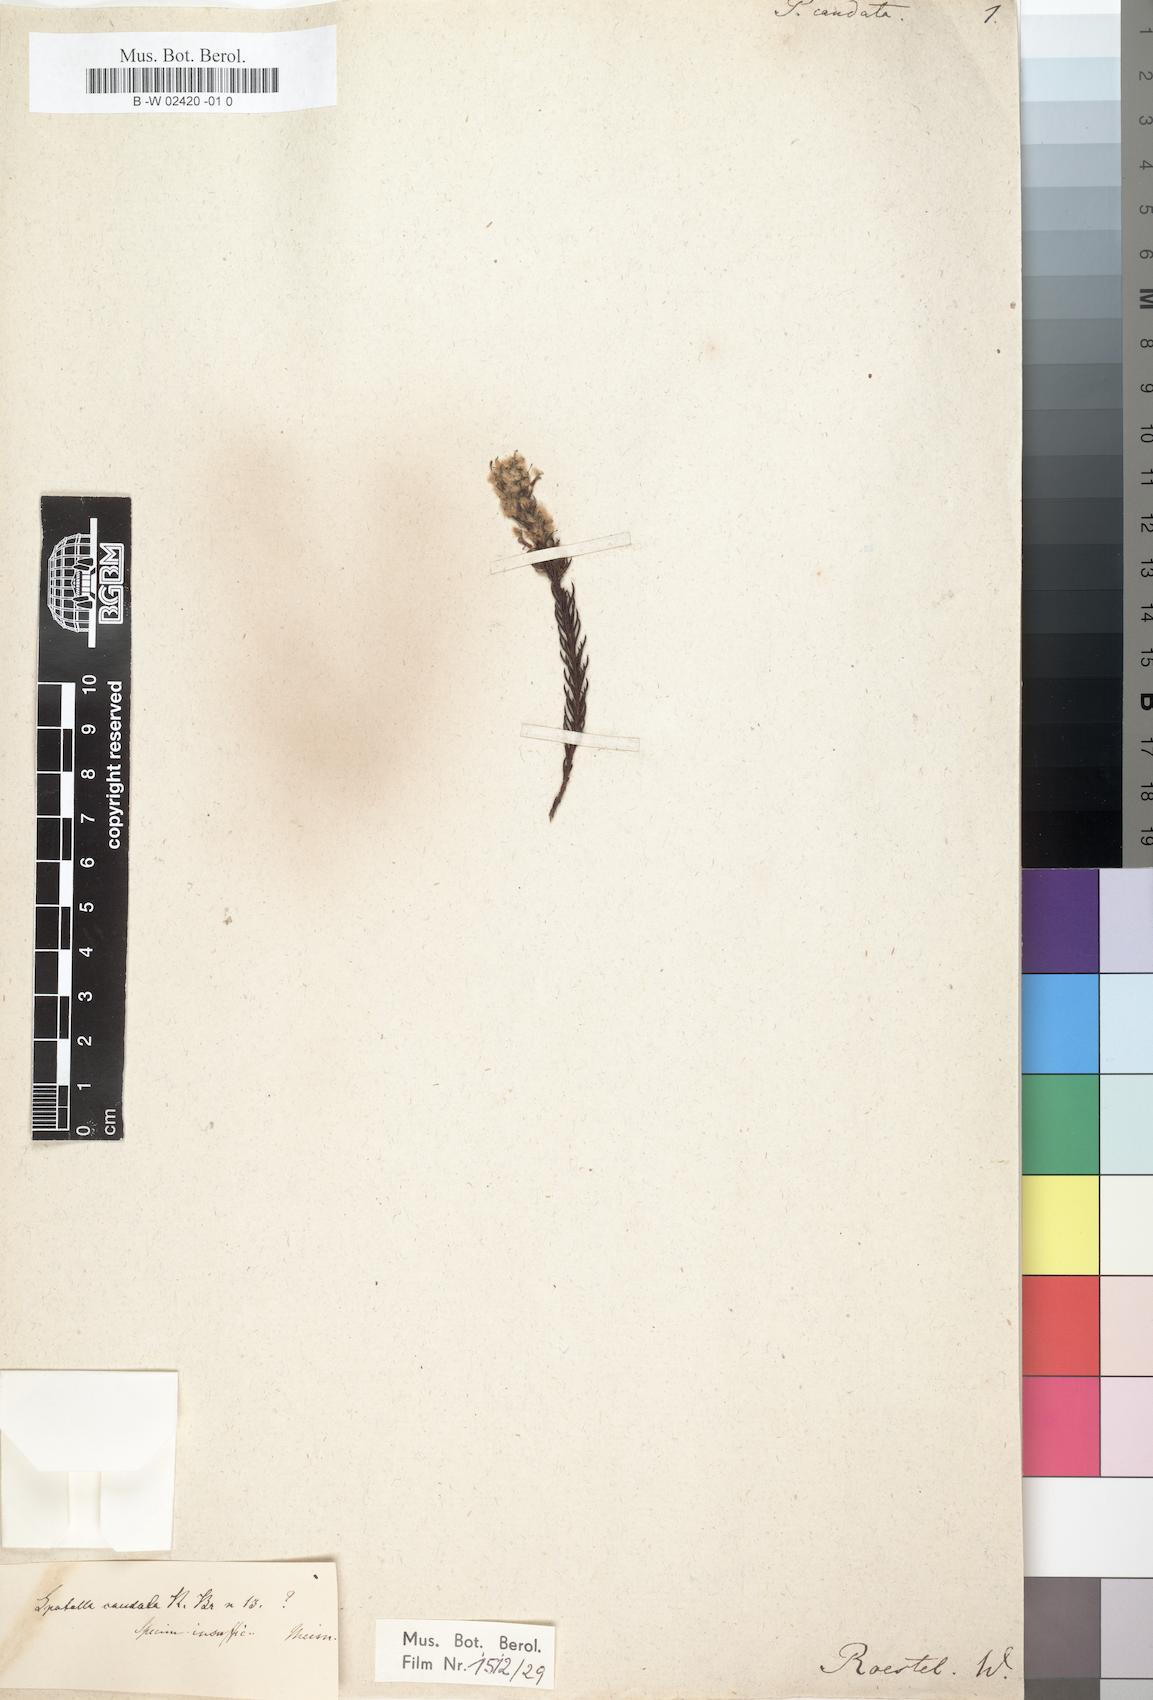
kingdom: Plantae
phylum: Tracheophyta
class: Magnoliopsida
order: Proteales
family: Proteaceae
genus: Spatalla
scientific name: Spatalla caudata
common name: Woolly-hair spoon
